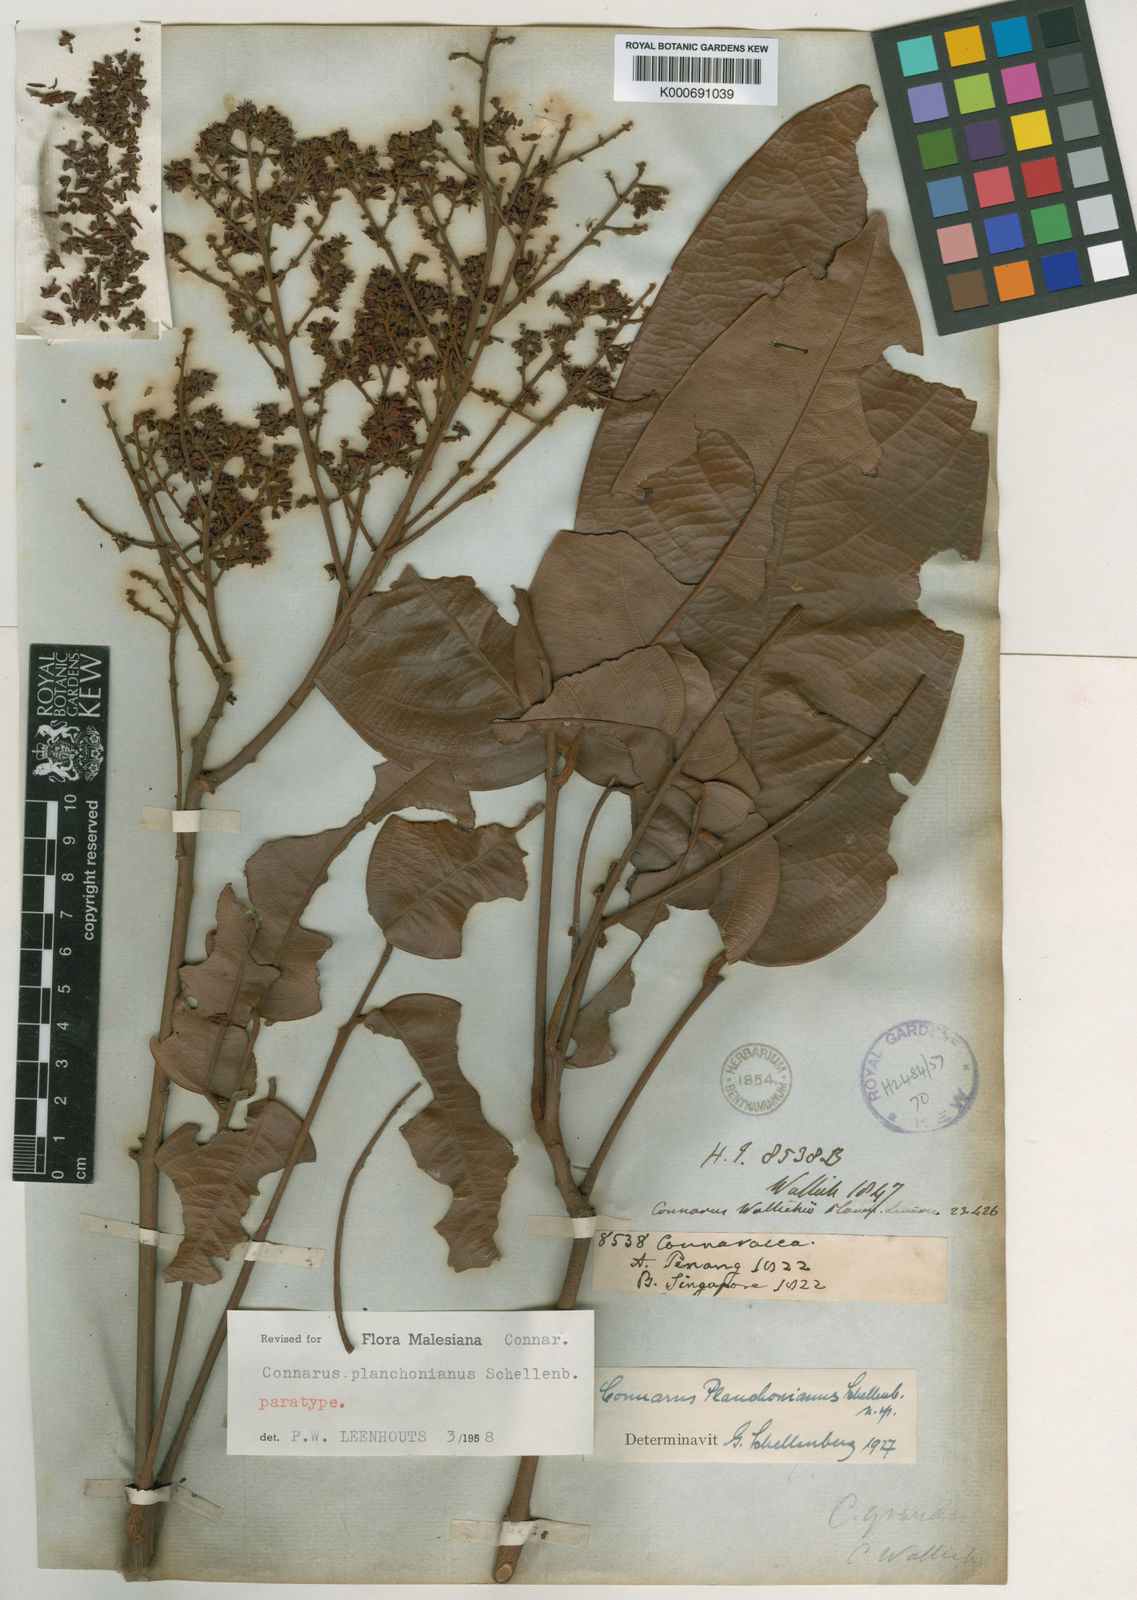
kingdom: Plantae
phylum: Tracheophyta
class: Magnoliopsida
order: Oxalidales
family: Connaraceae
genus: Connarus
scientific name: Connarus planchonianus
